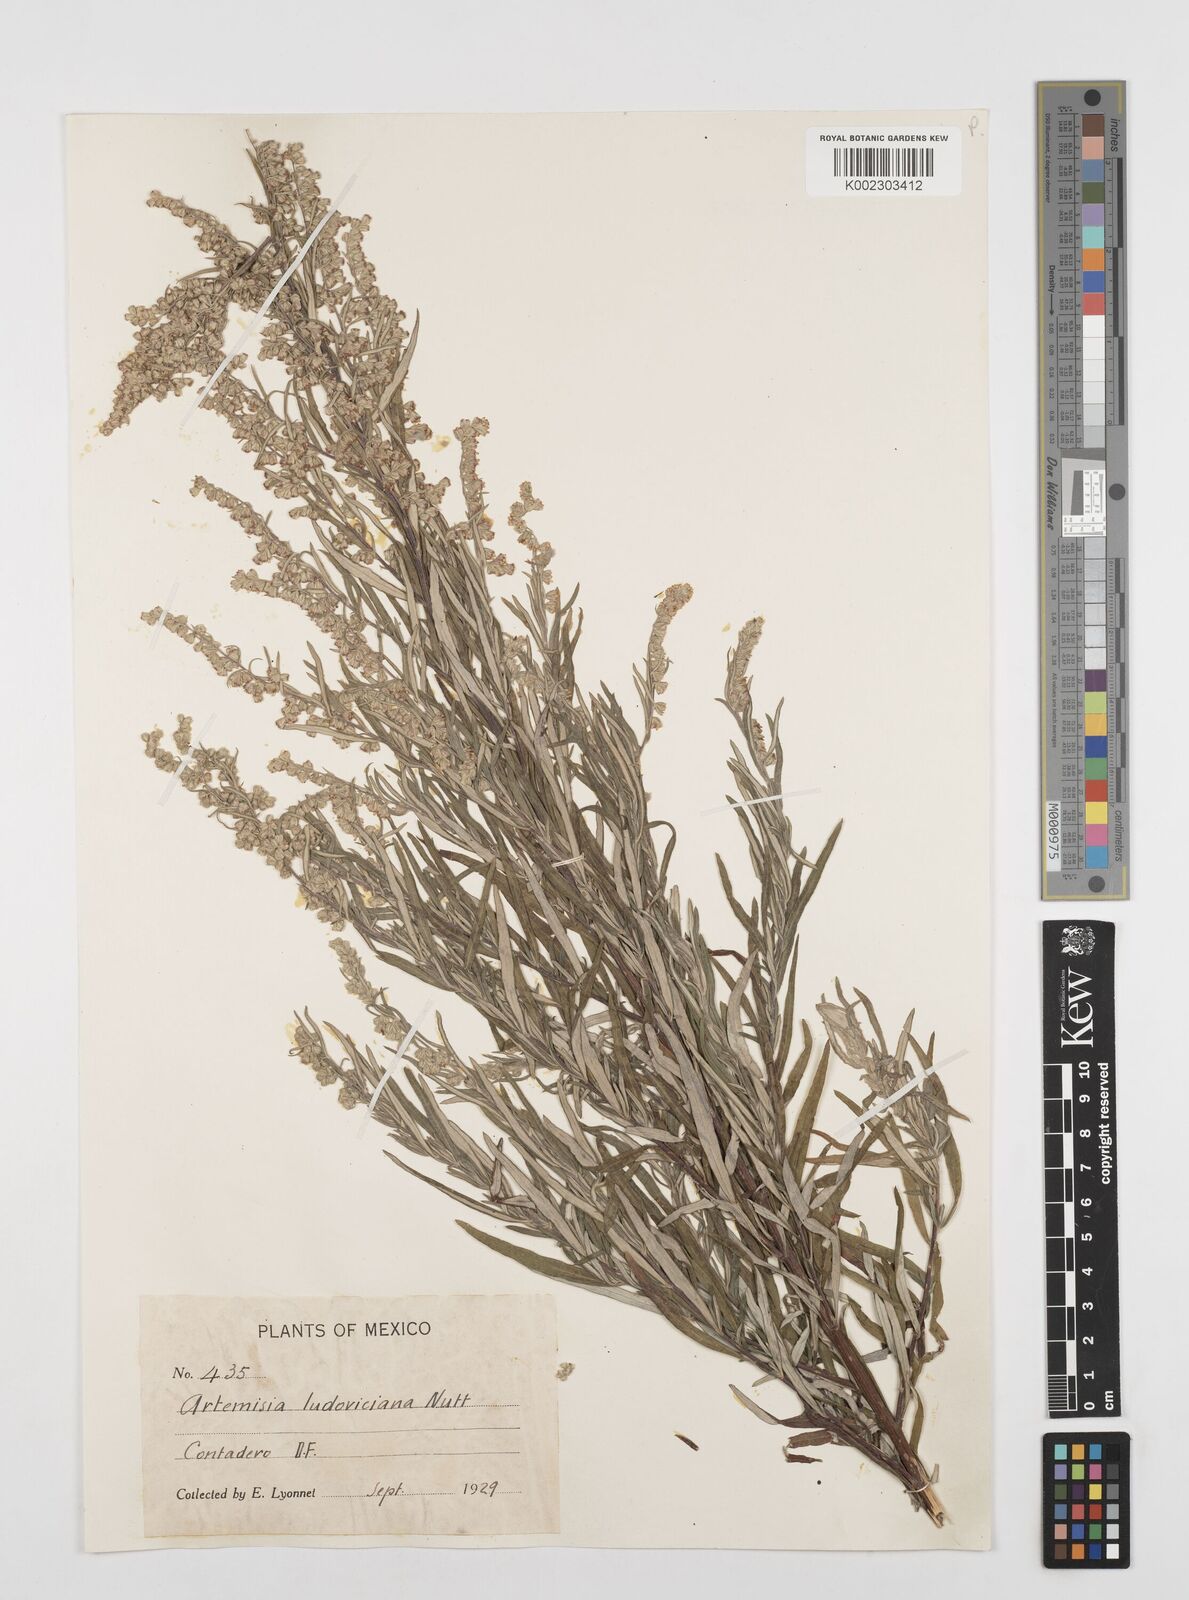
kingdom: Plantae
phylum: Tracheophyta
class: Magnoliopsida
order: Asterales
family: Asteraceae
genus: Artemisia
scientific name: Artemisia ludoviciana
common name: Western mugwort
